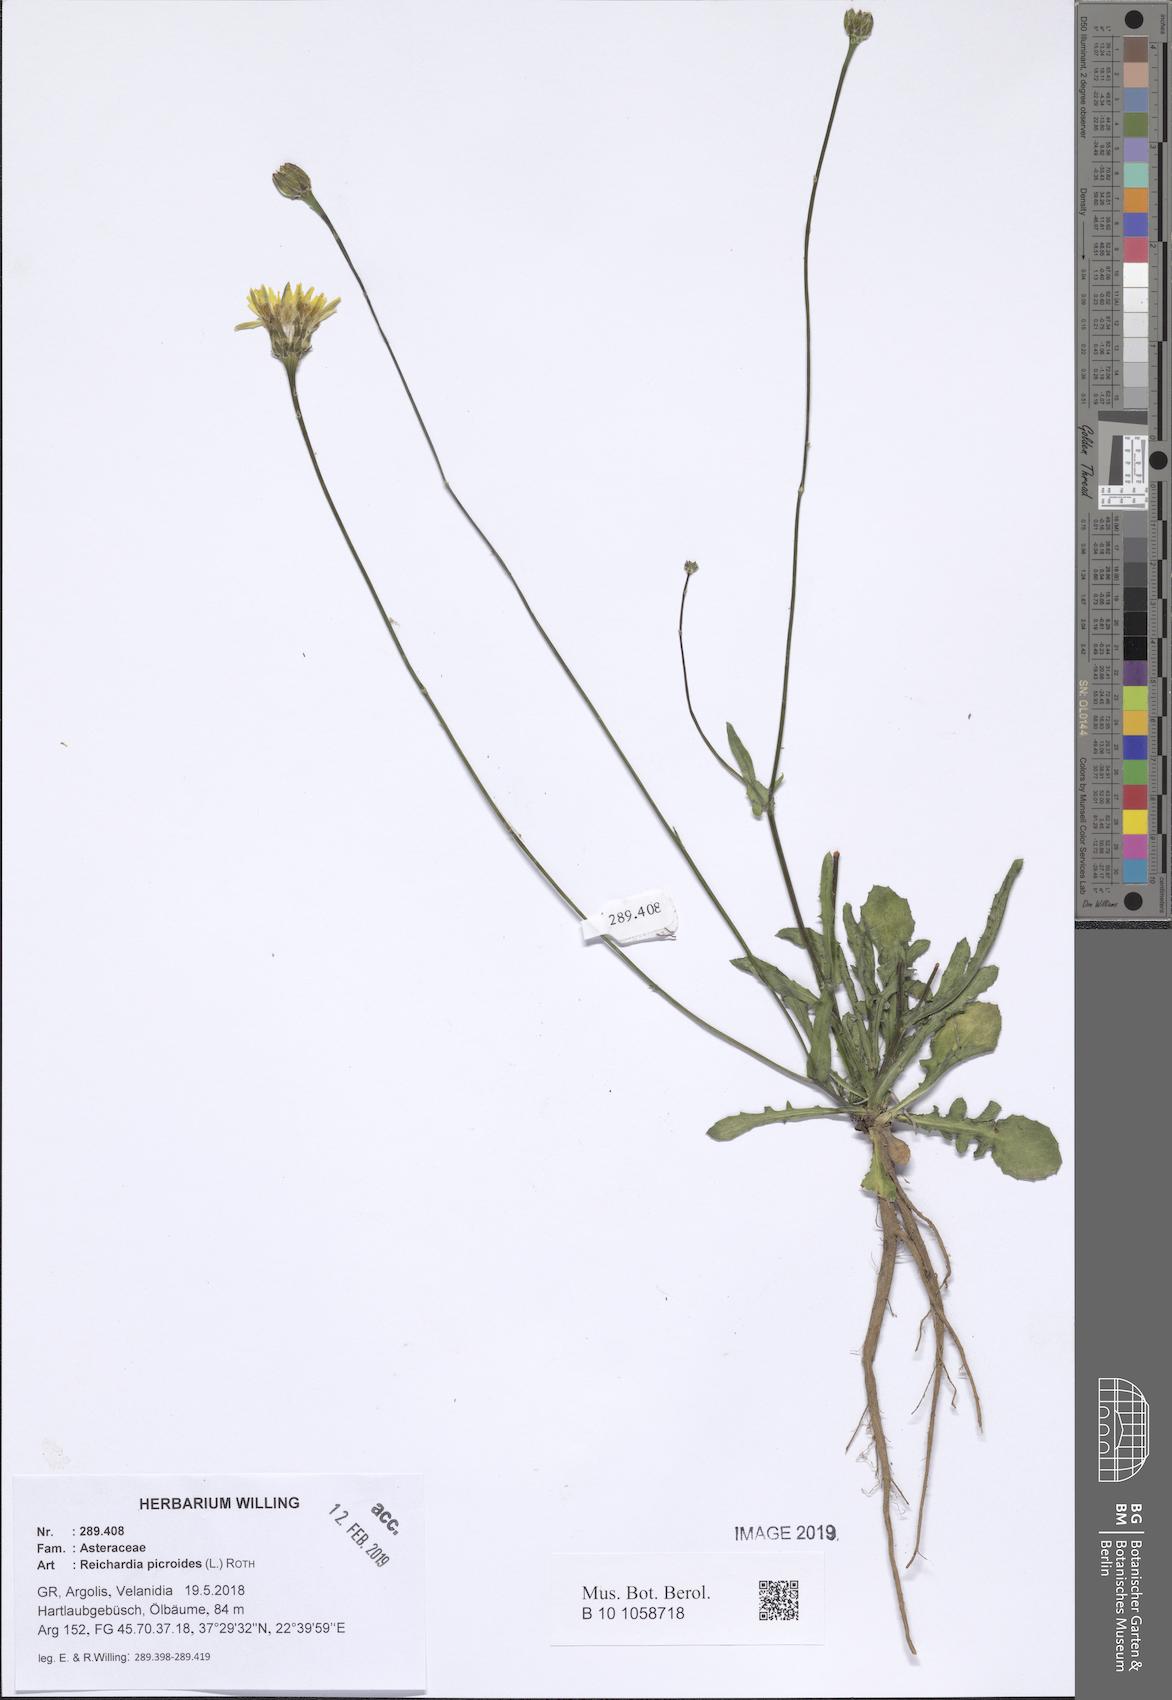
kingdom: Plantae
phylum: Tracheophyta
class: Magnoliopsida
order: Asterales
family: Asteraceae
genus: Reichardia
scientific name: Reichardia picroides
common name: Common brighteyes
